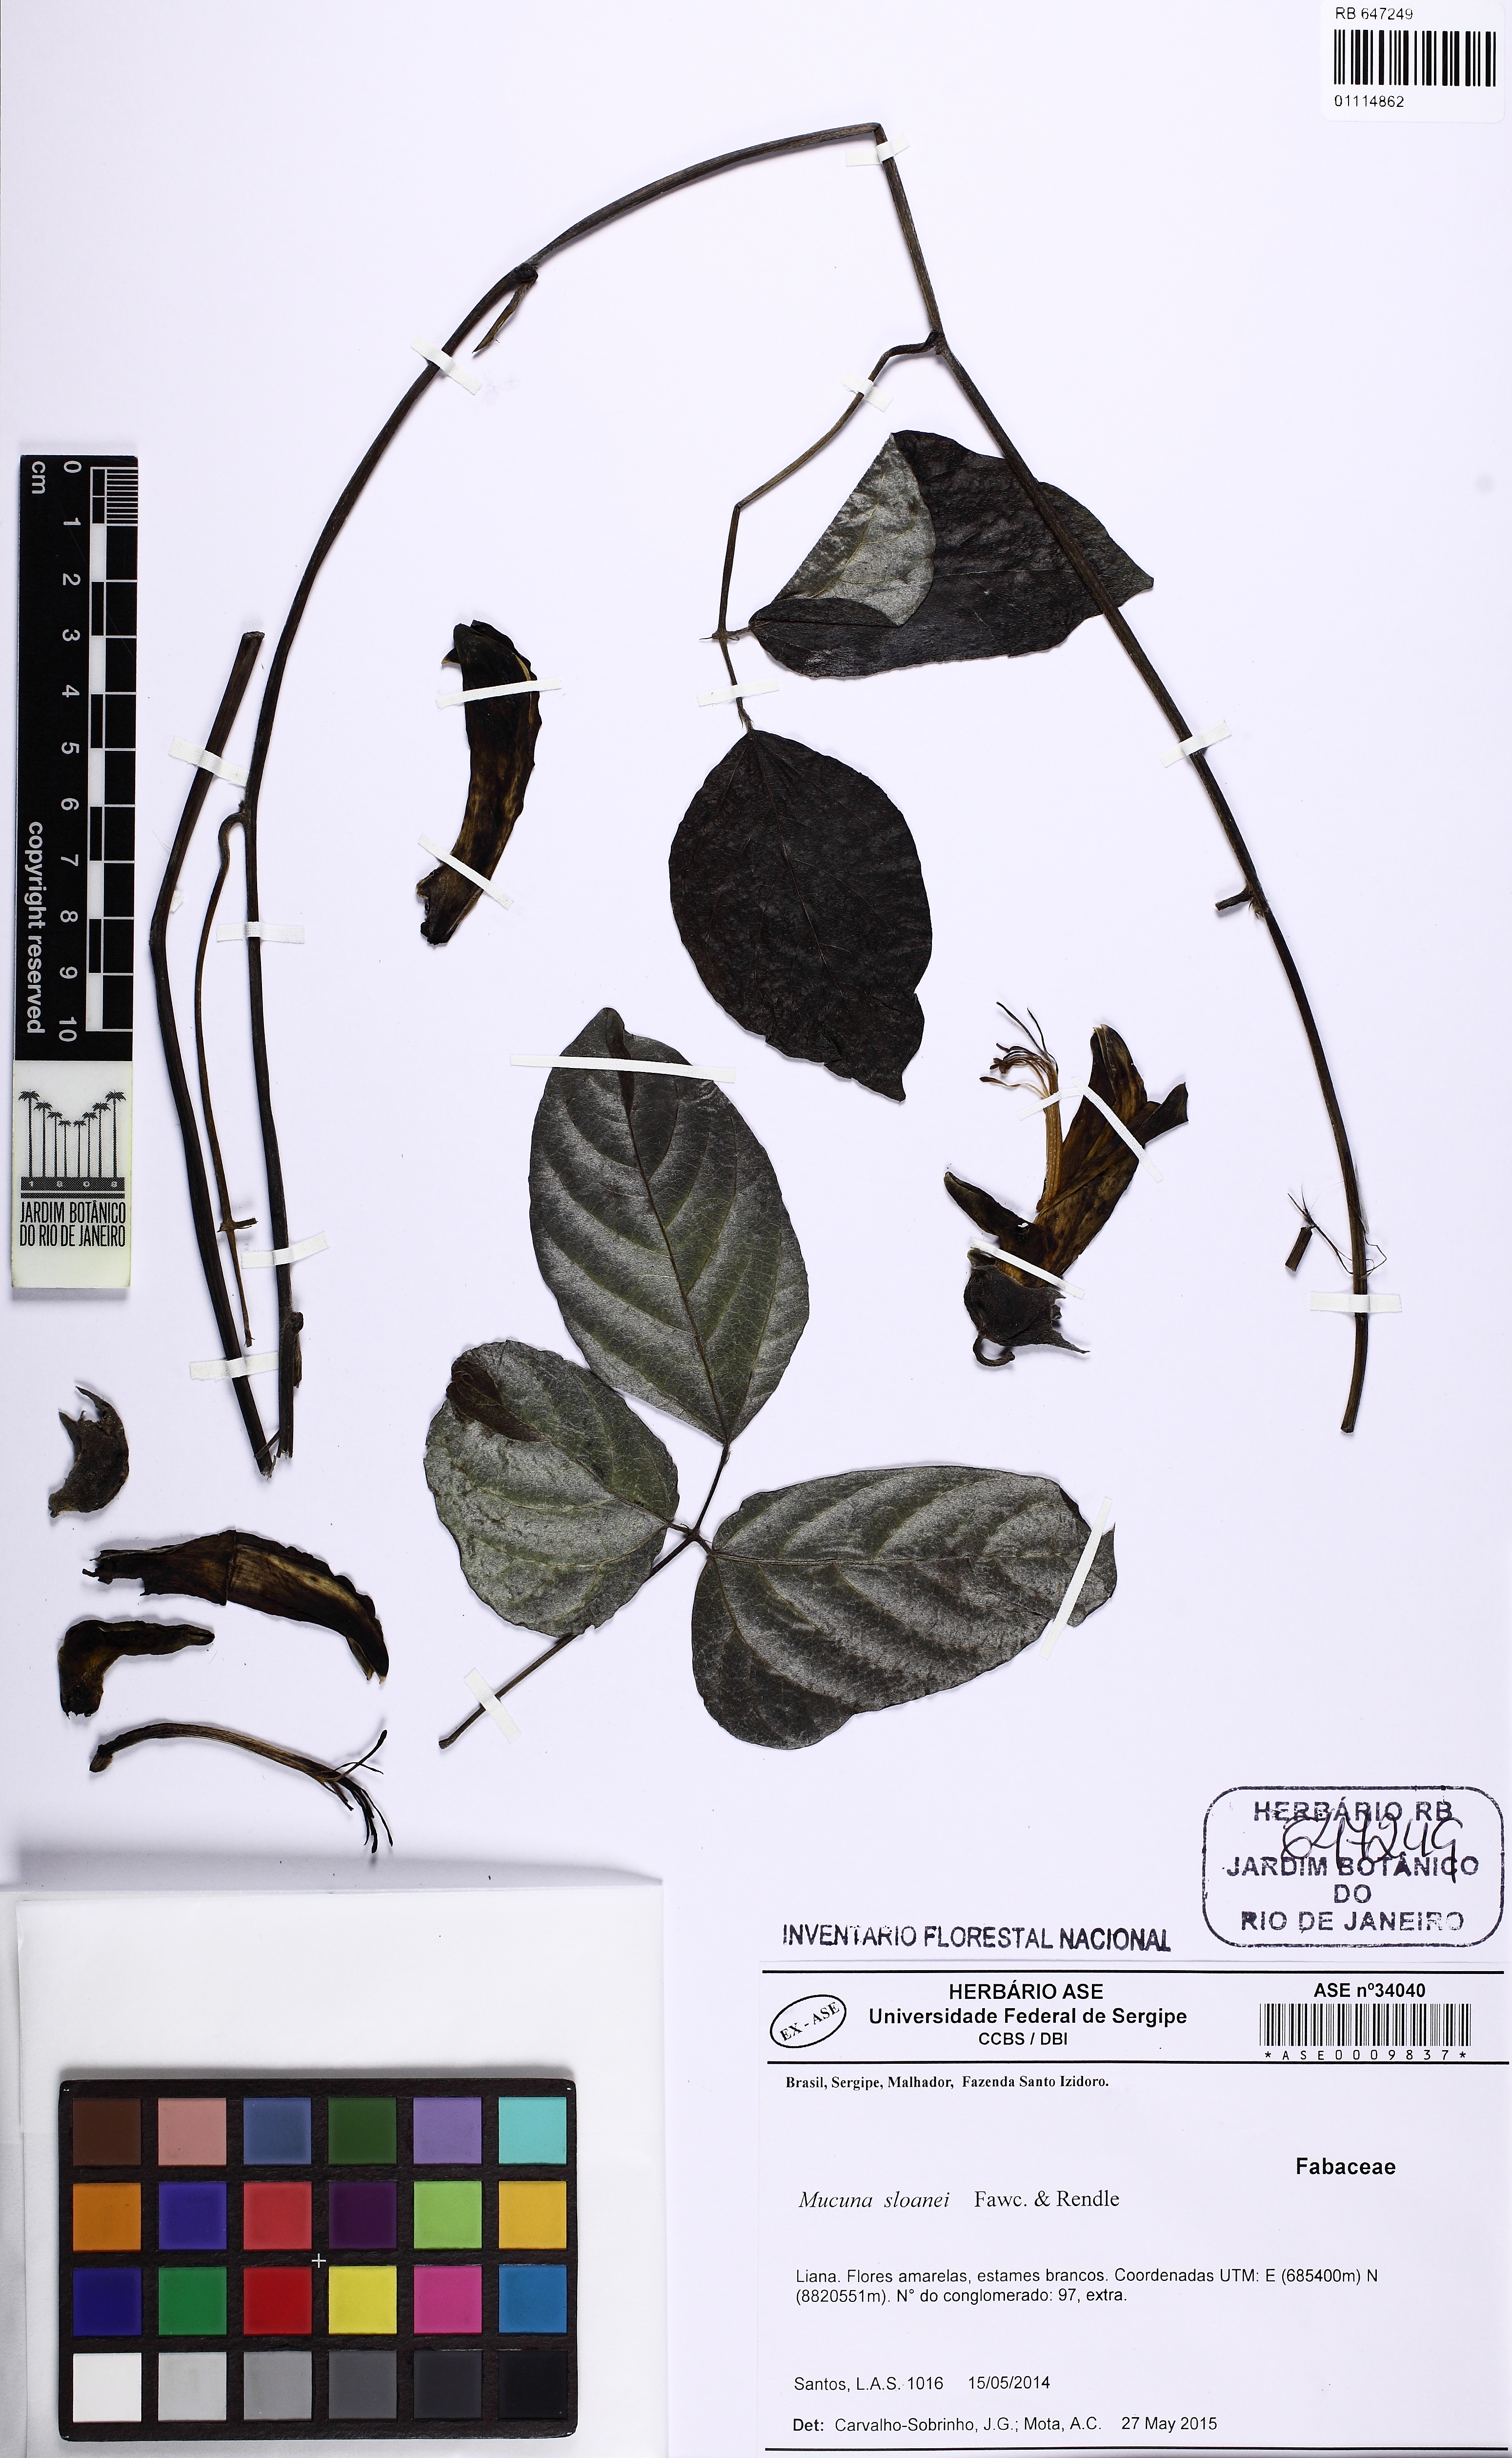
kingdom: Plantae
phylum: Tracheophyta
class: Magnoliopsida
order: Fabales
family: Fabaceae
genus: Mucuna
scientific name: Mucuna sloanei
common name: Horse-eye bean
